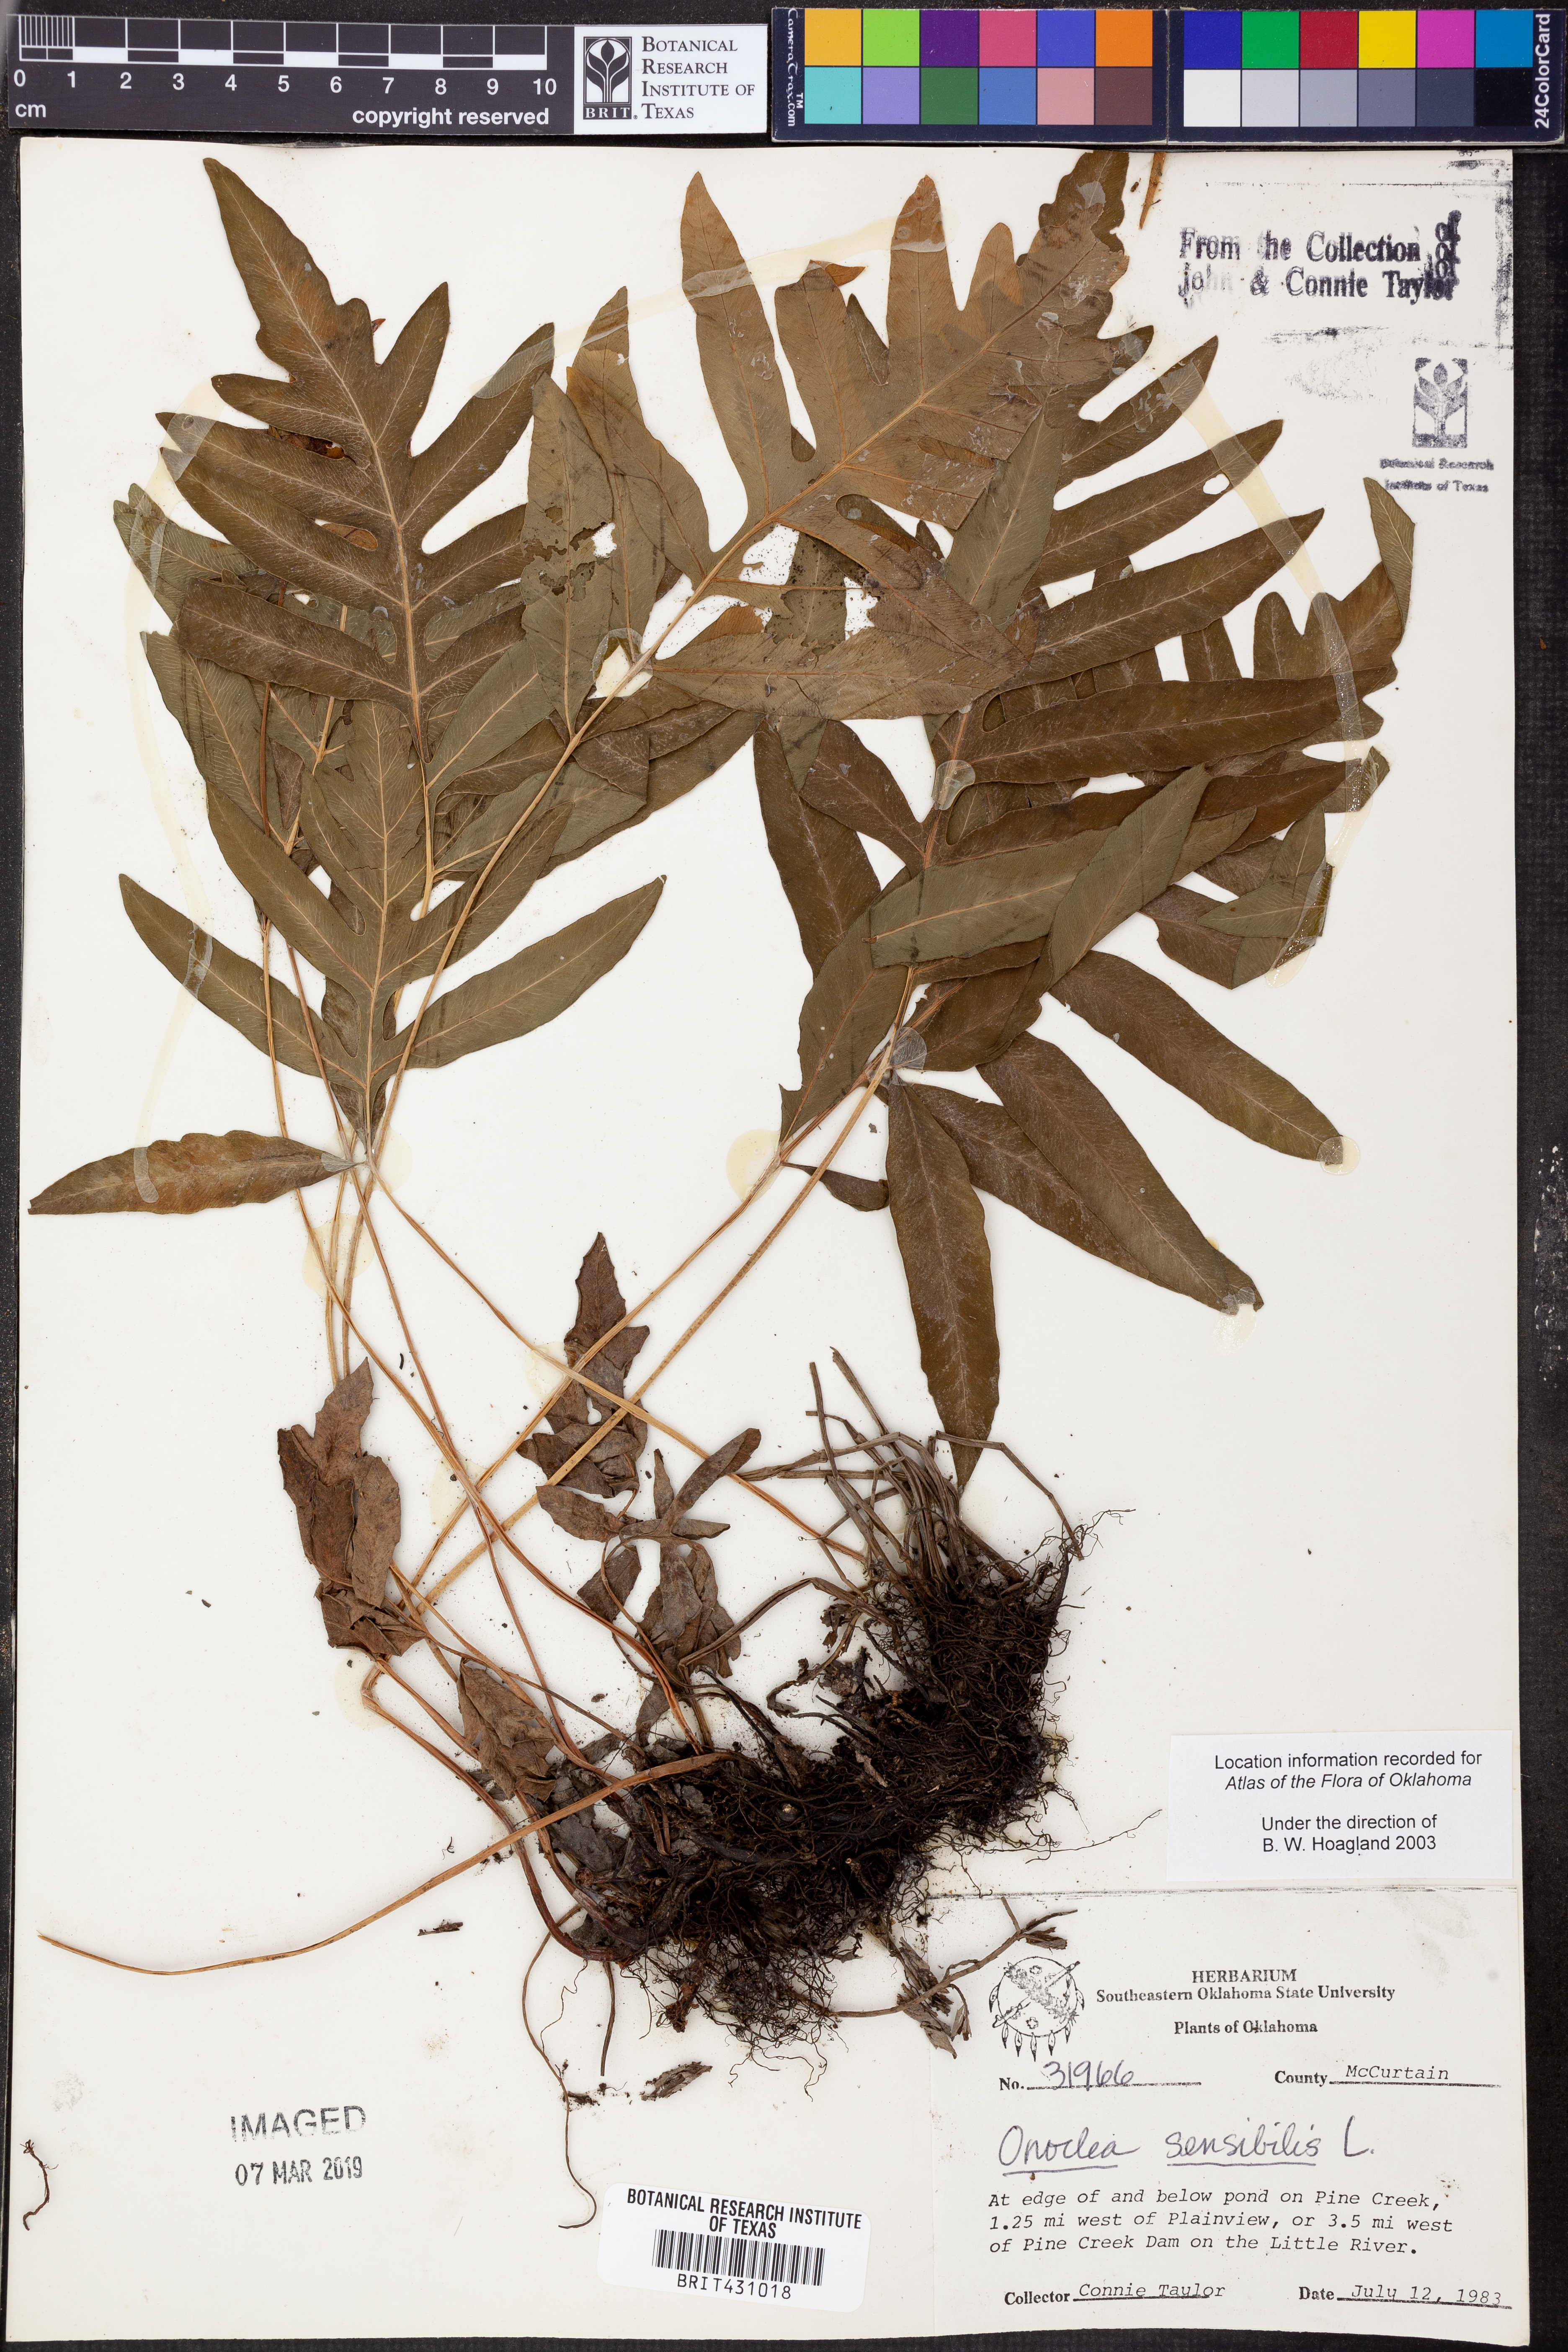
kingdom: Plantae
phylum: Tracheophyta
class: Polypodiopsida
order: Polypodiales
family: Onocleaceae
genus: Onoclea
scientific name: Onoclea sensibilis
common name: Sensitive fern
